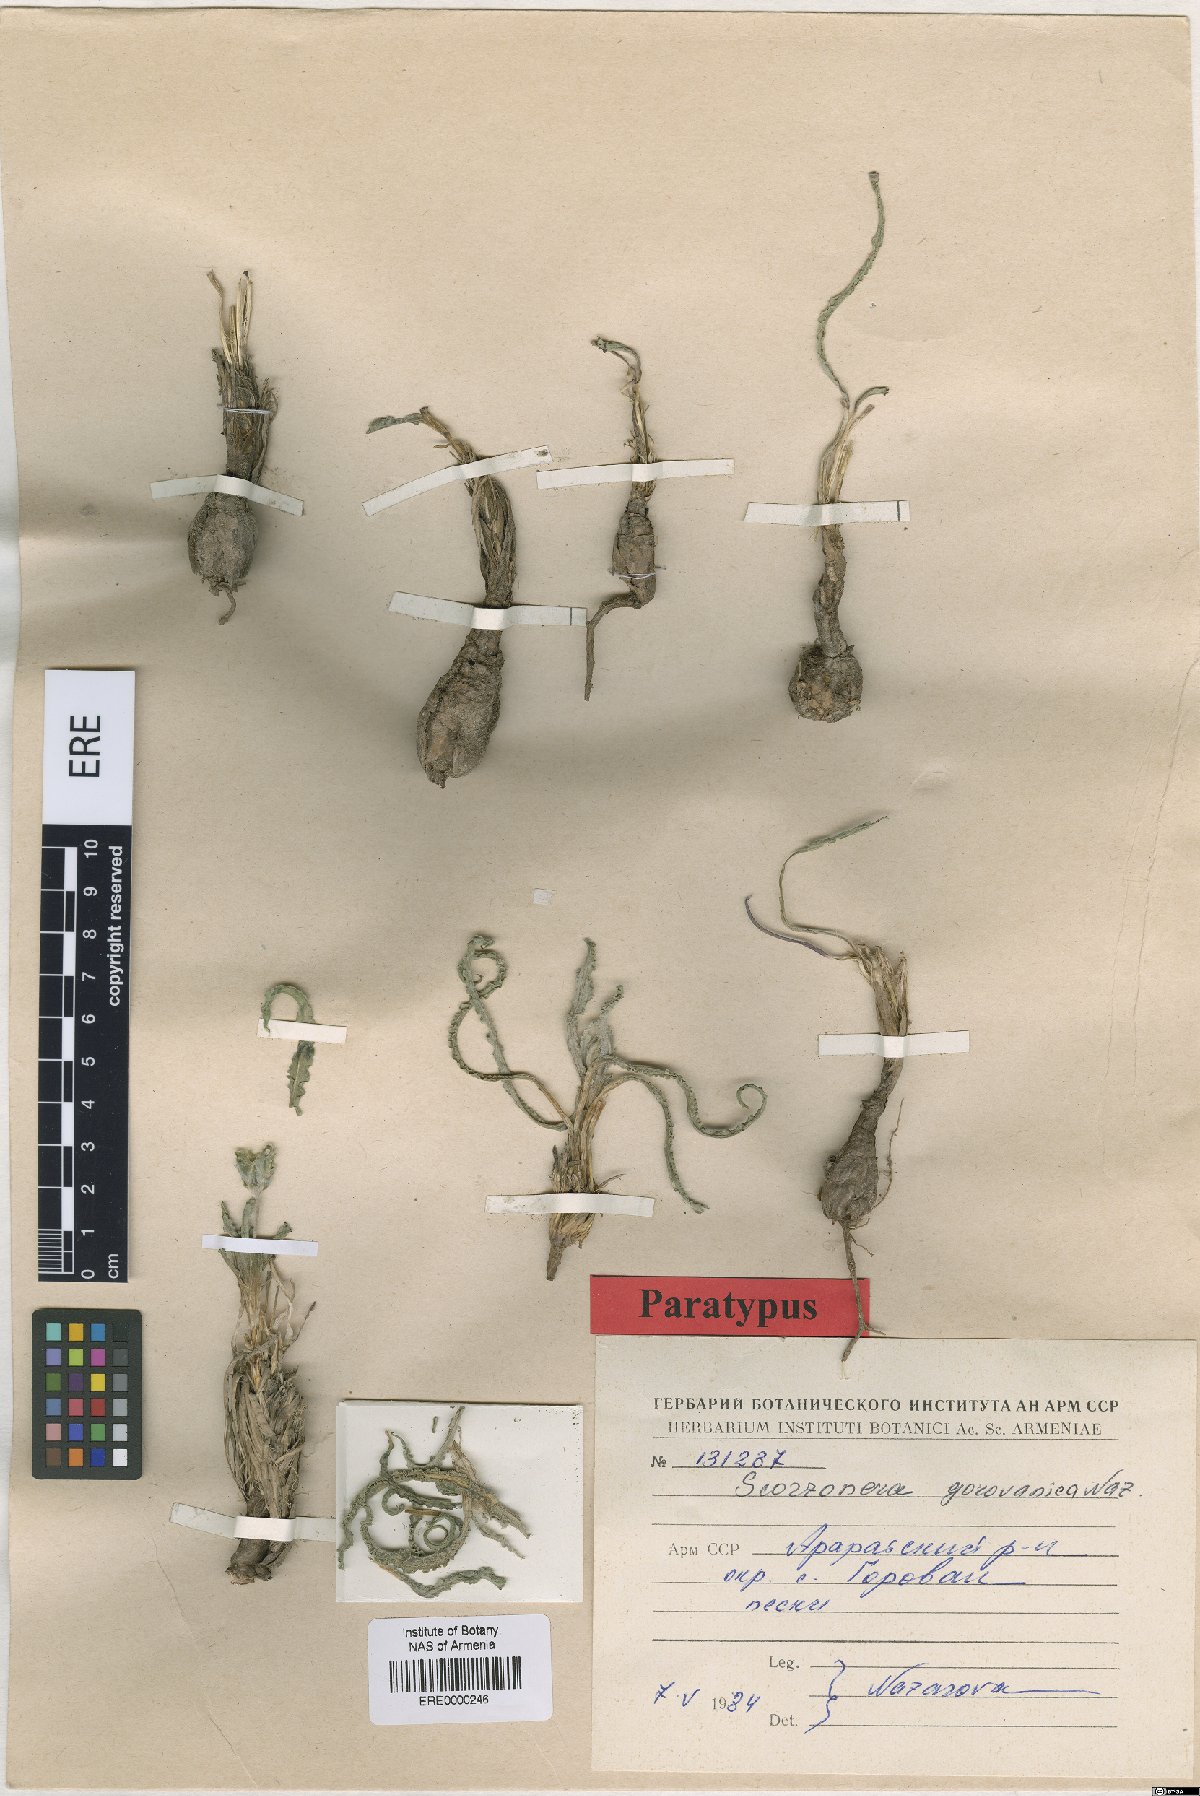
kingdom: Plantae
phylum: Tracheophyta
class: Magnoliopsida
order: Asterales
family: Asteraceae
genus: Scorzonera
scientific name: Scorzonera gorovanica
